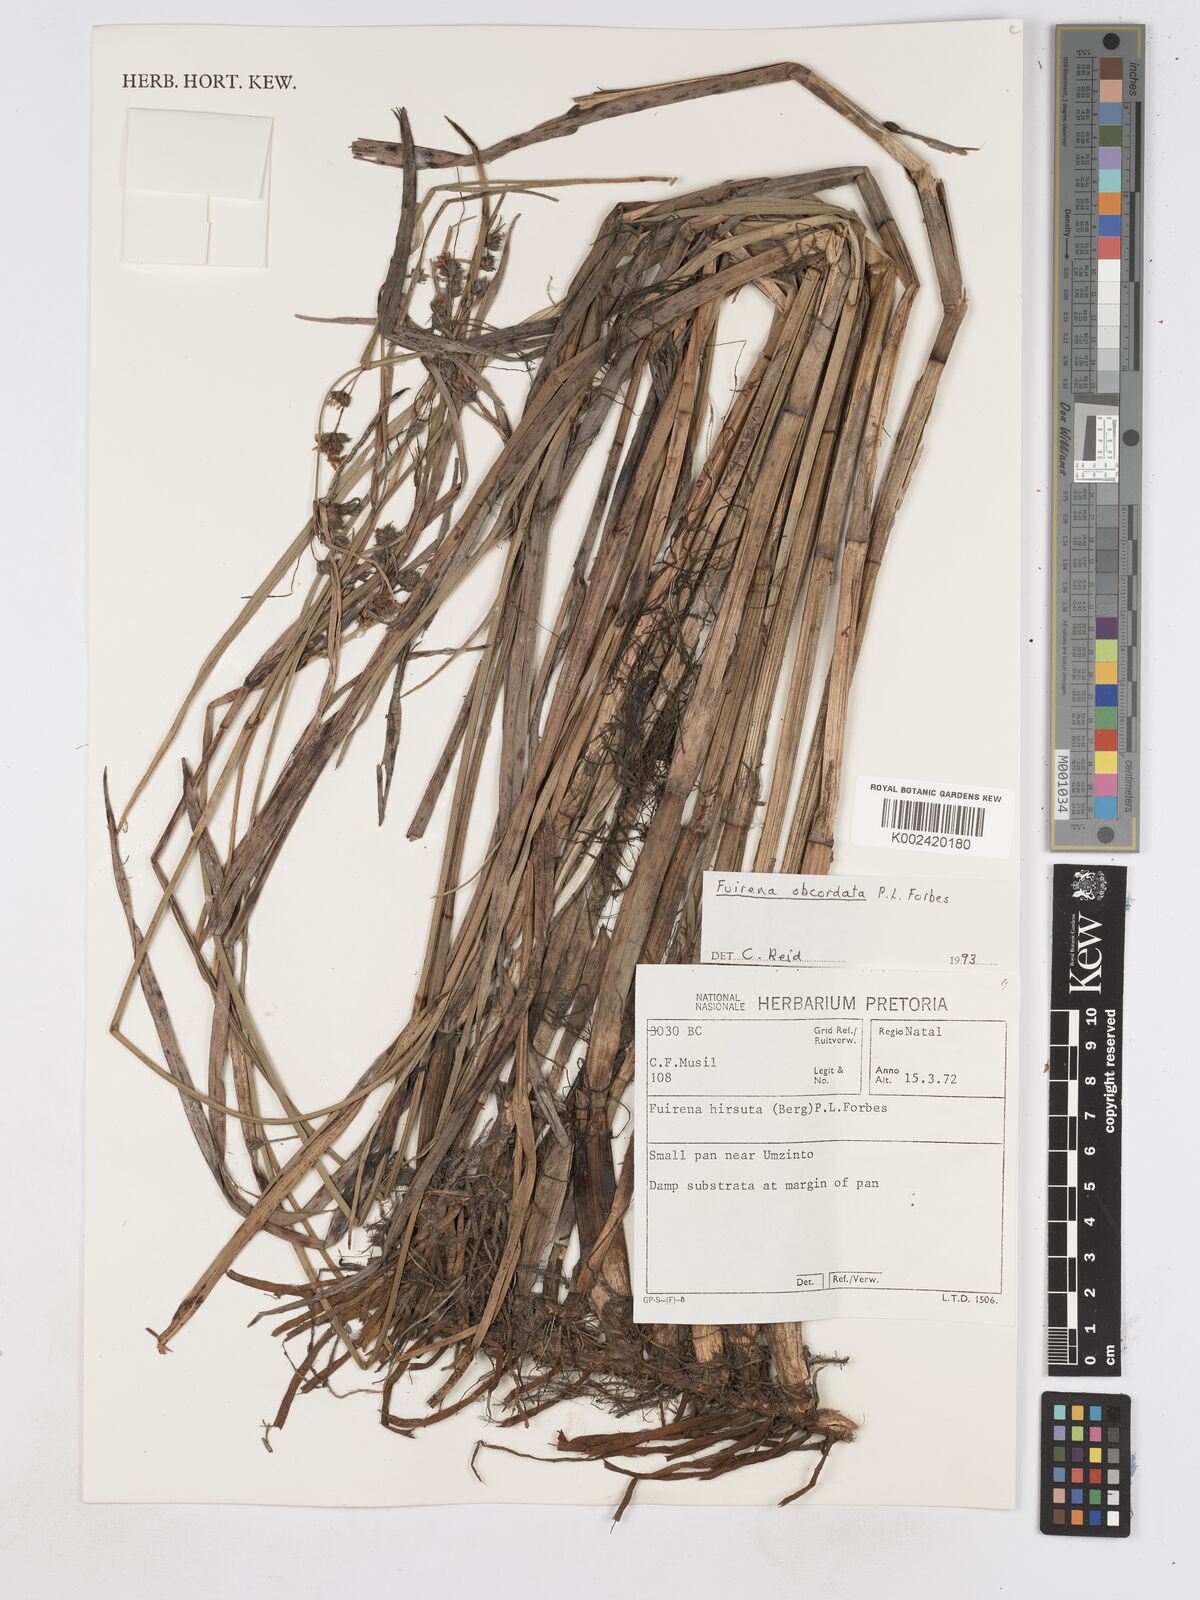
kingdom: Plantae
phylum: Tracheophyta
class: Liliopsida
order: Poales
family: Cyperaceae
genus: Fuirena
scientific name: Fuirena obcordata
